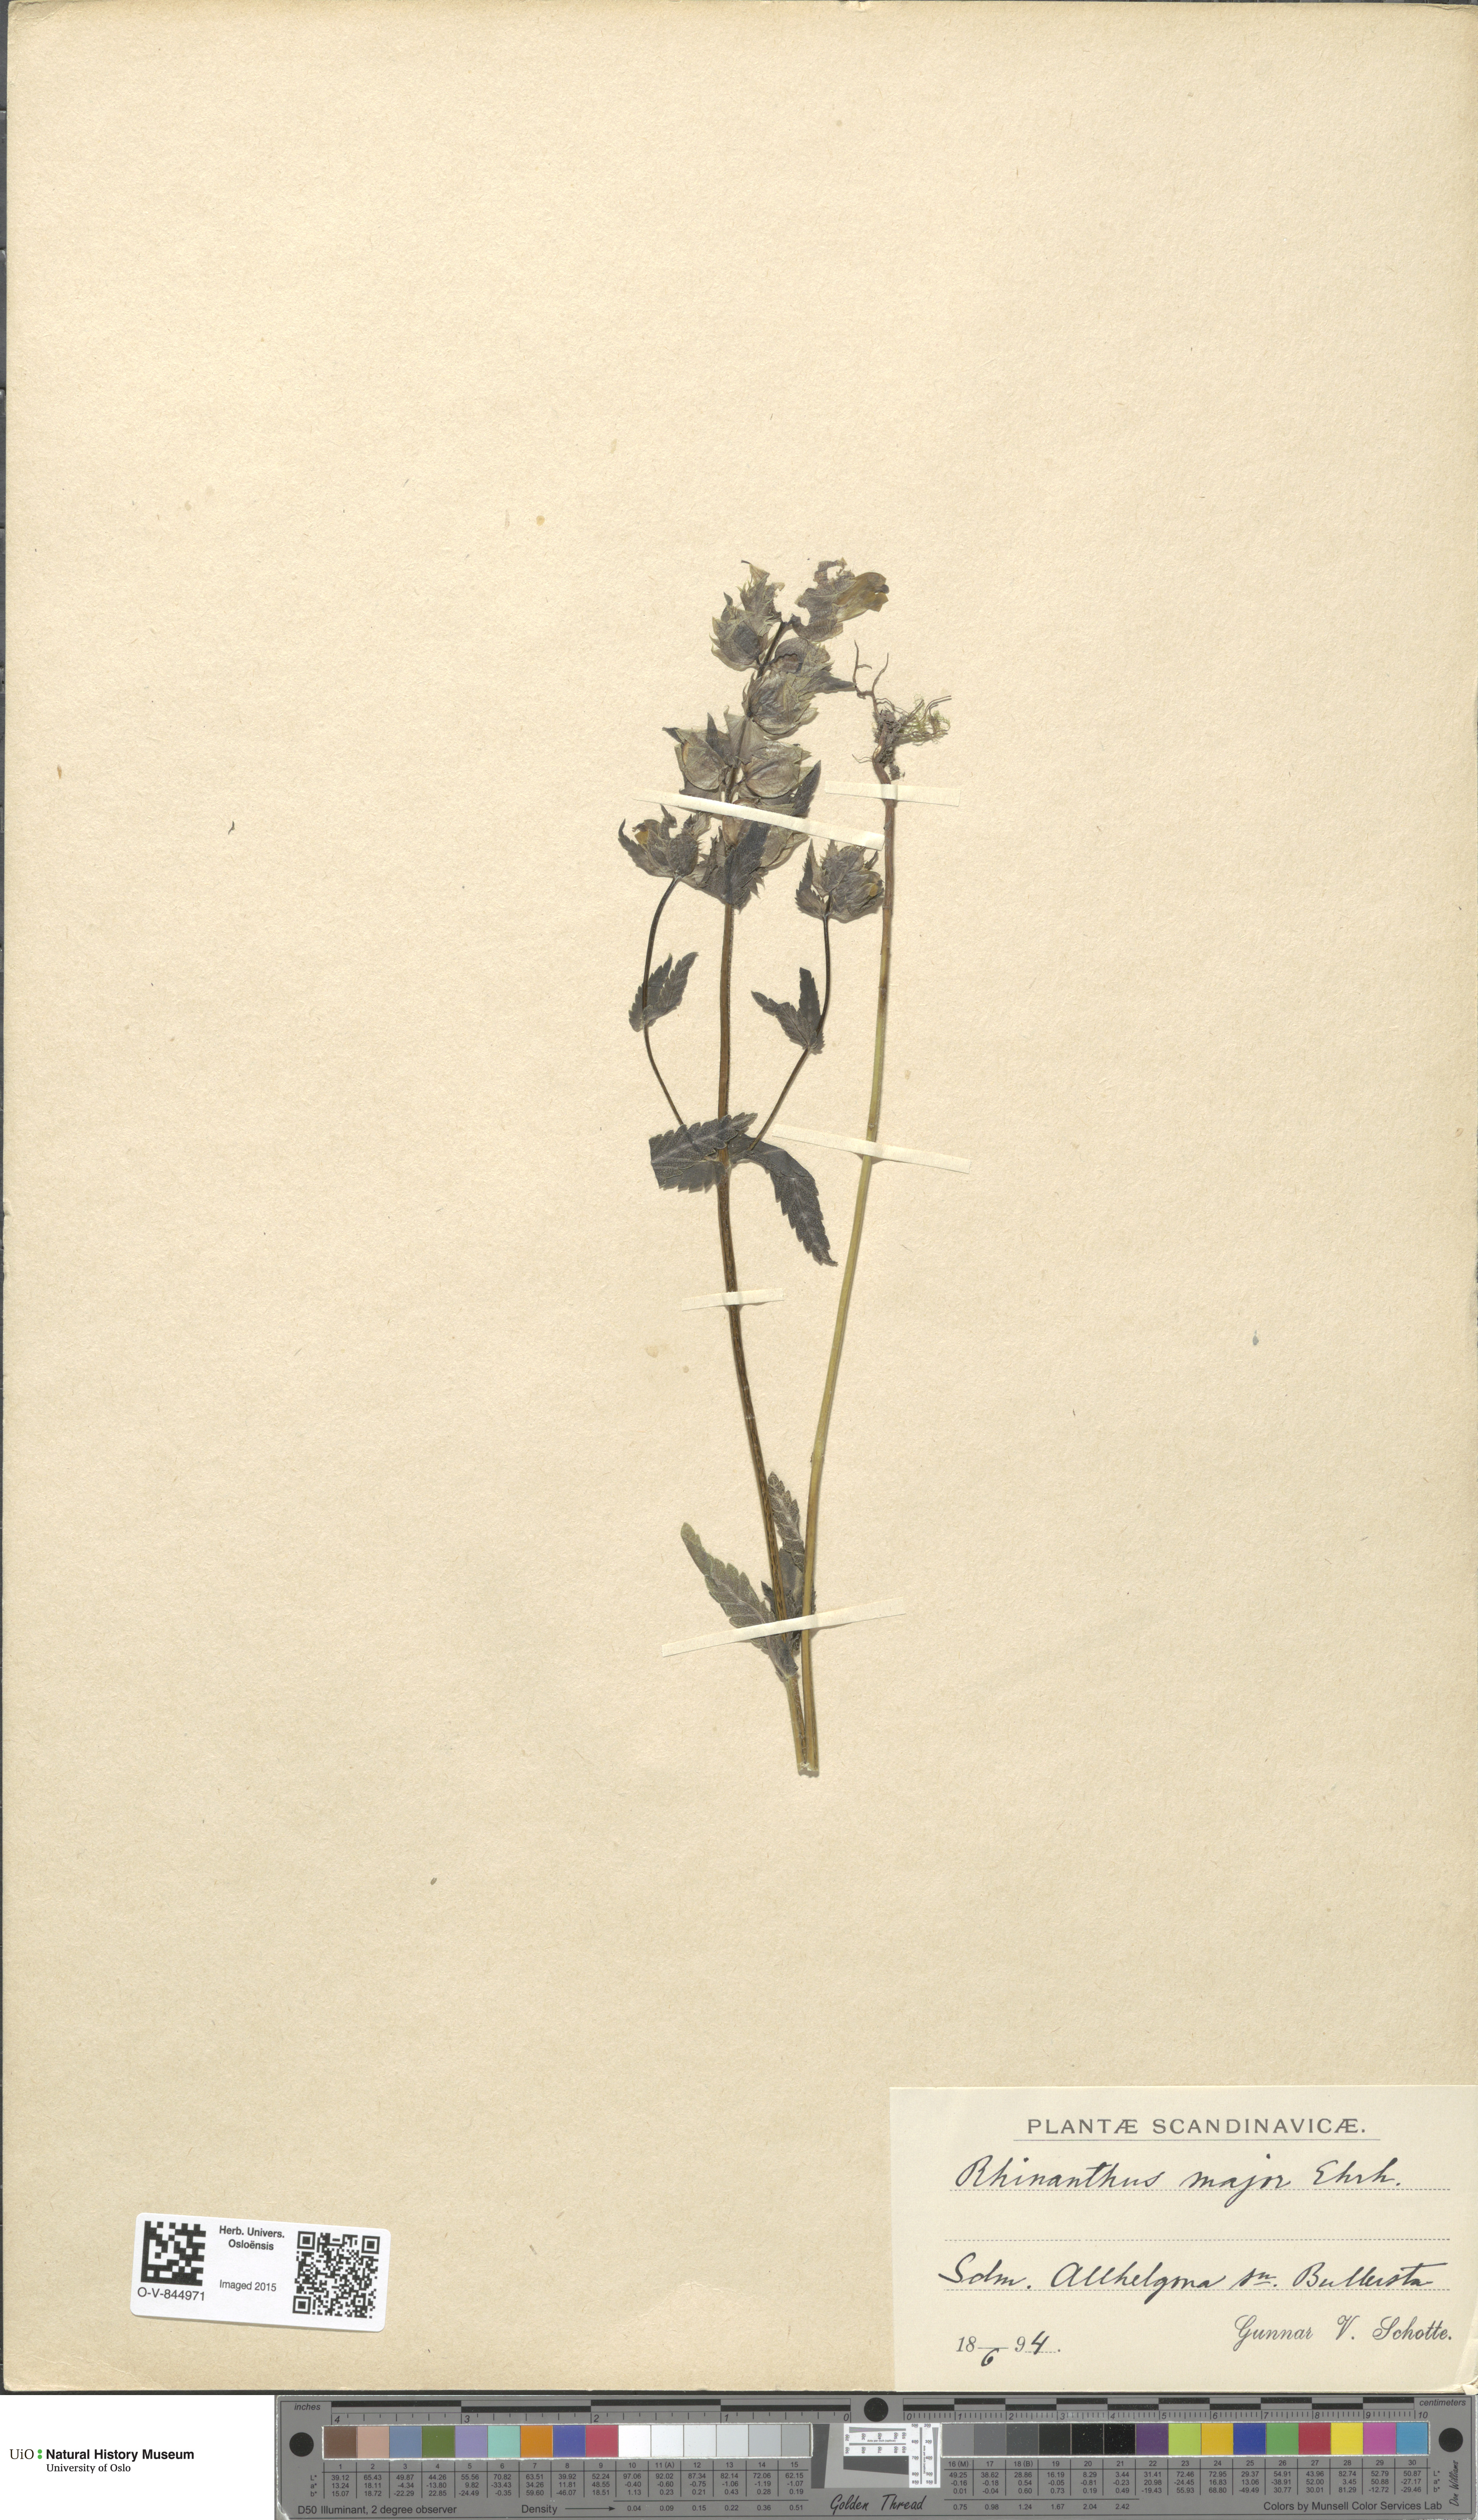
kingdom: Plantae
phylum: Tracheophyta
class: Magnoliopsida
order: Lamiales
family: Orobanchaceae
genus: Rhinanthus
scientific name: Rhinanthus serotinus
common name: Late-flowering yellow rattle
